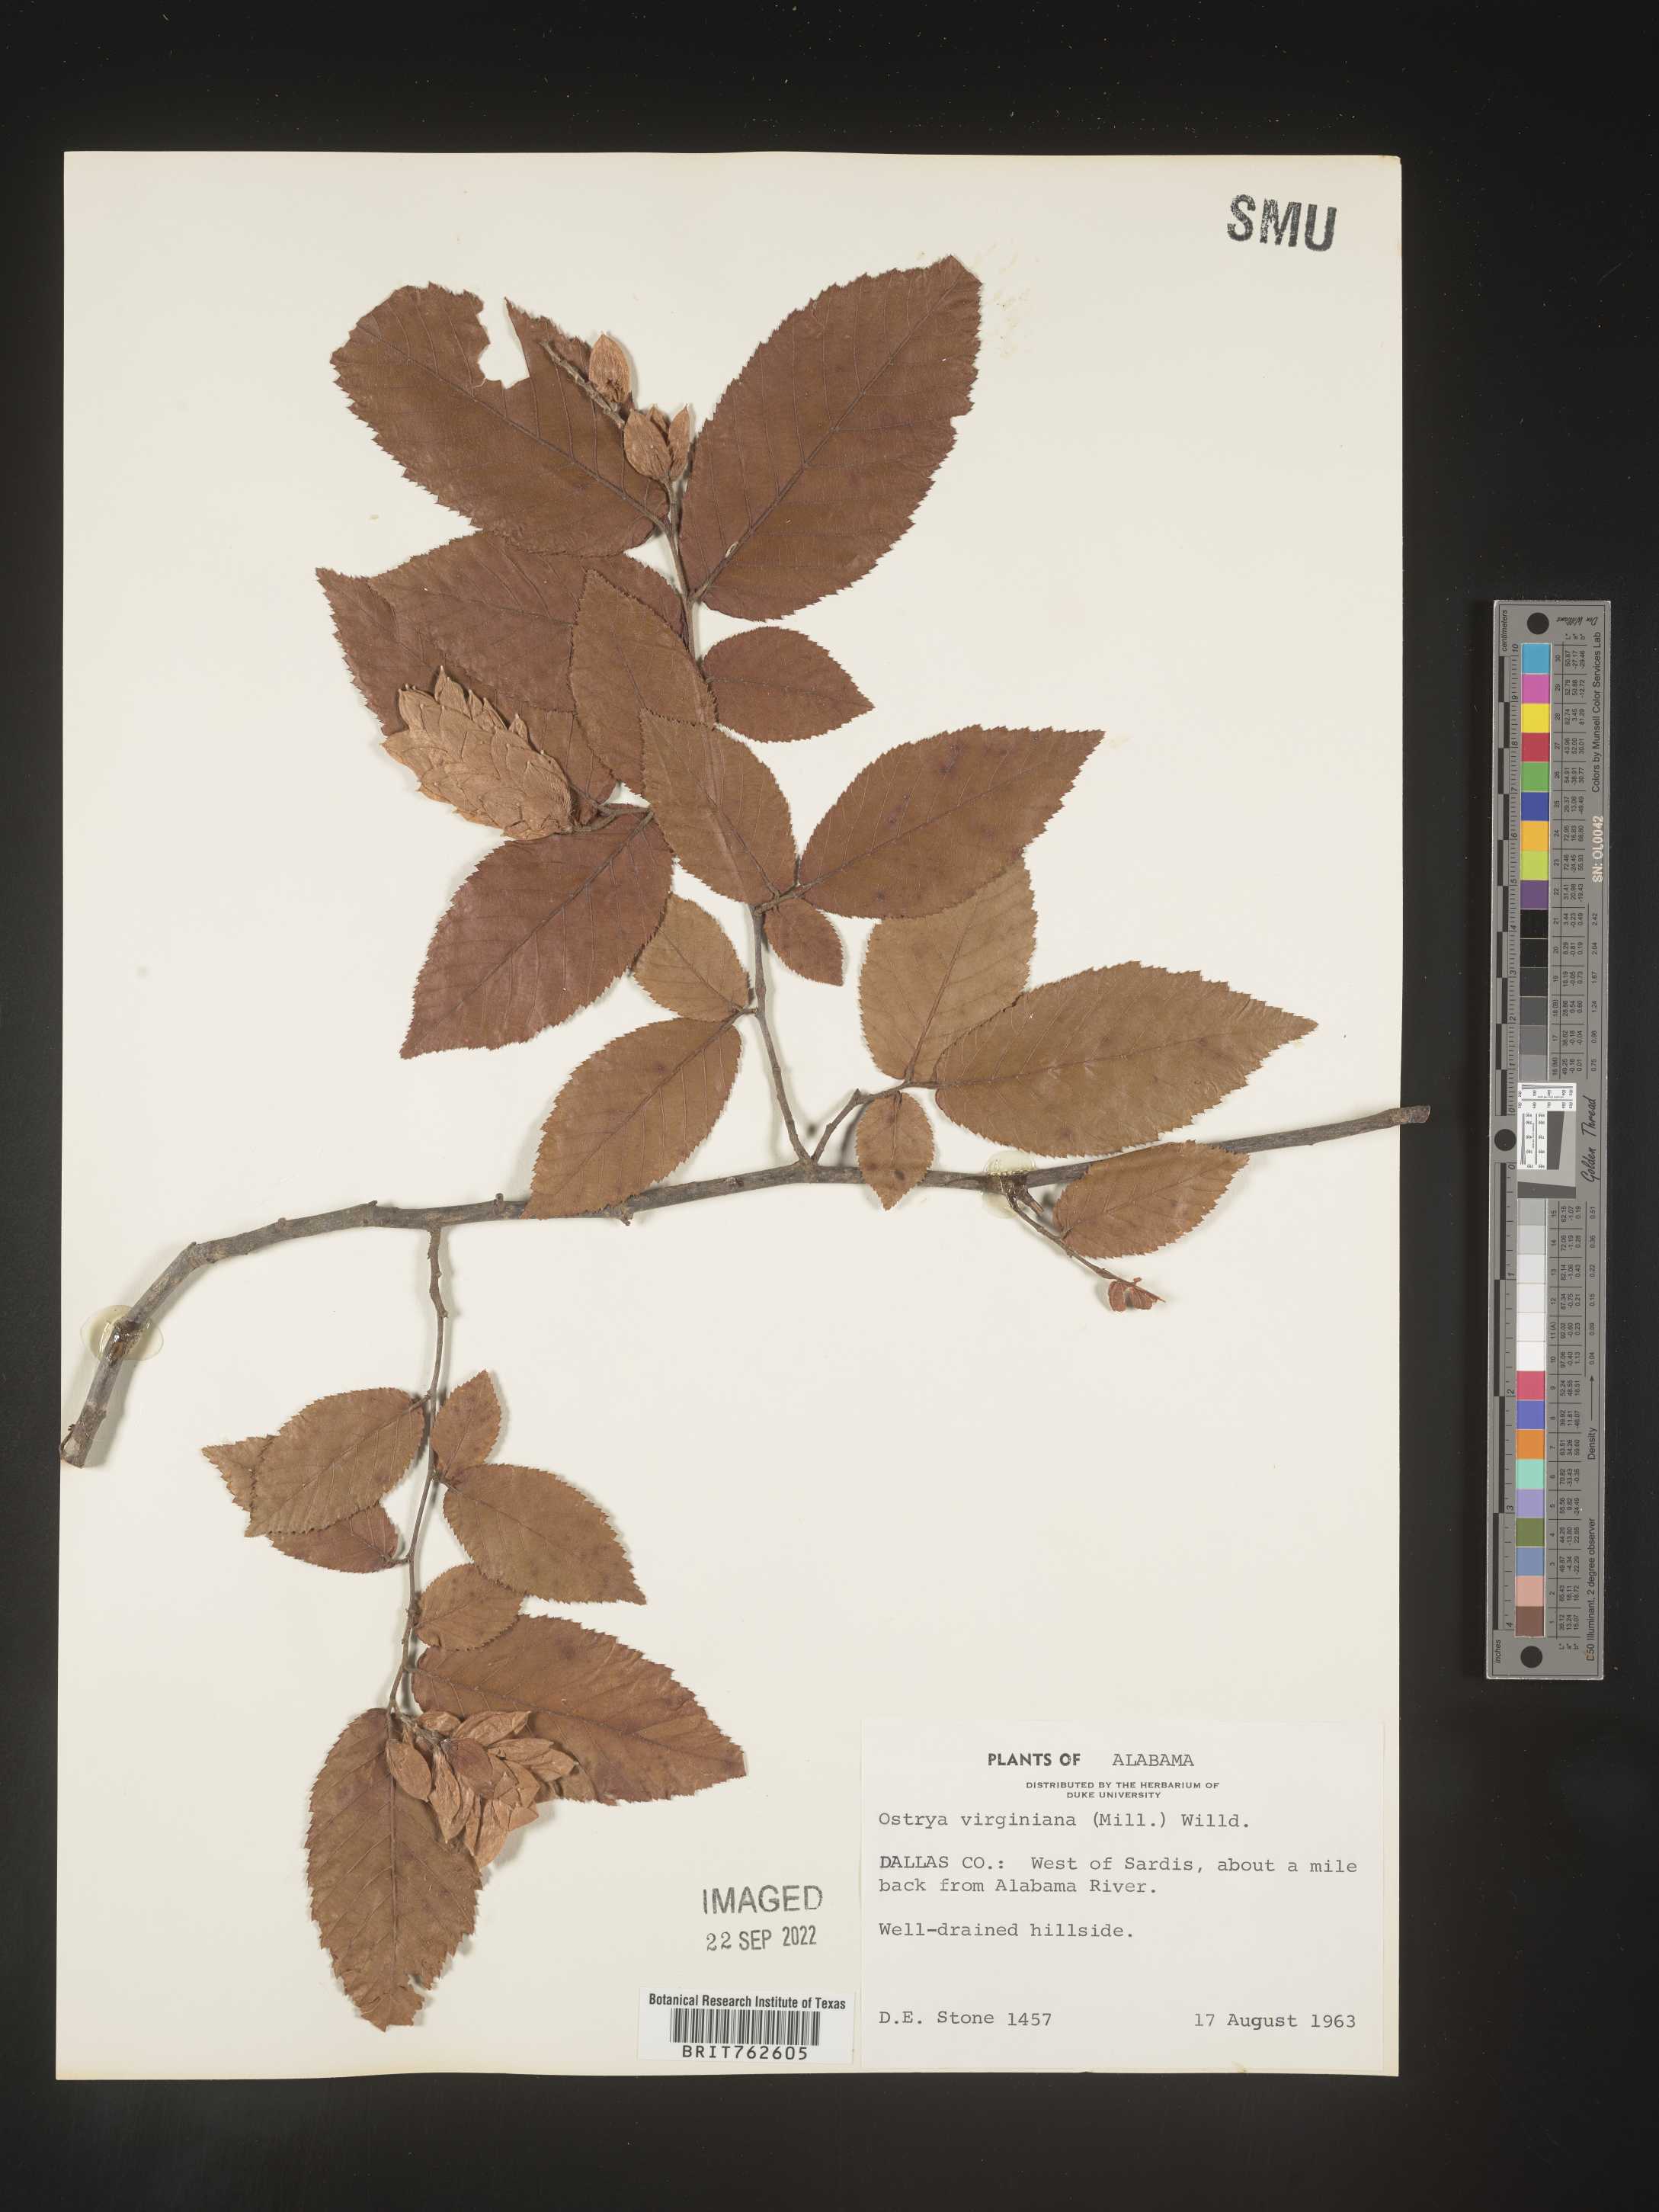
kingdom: Plantae
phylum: Tracheophyta
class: Magnoliopsida
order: Fagales
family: Betulaceae
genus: Ostrya
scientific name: Ostrya virginiana
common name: Ironwood
